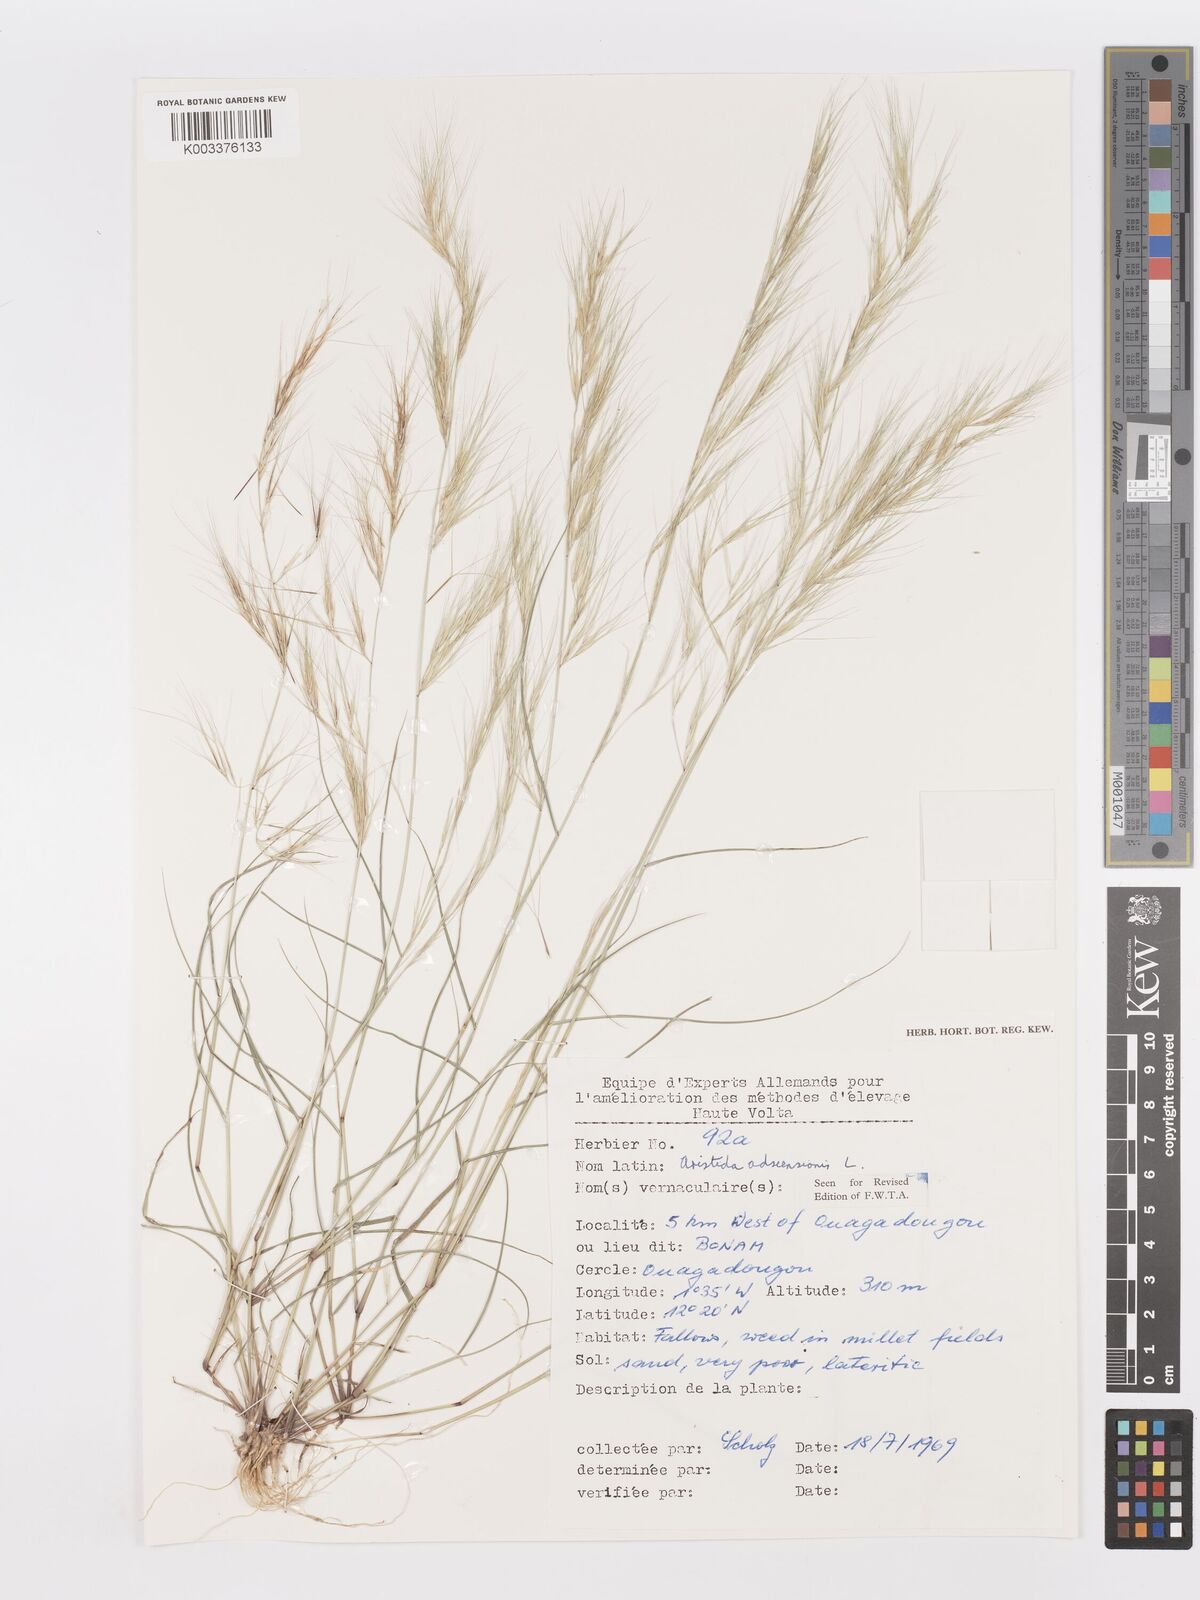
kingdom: Plantae
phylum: Tracheophyta
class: Liliopsida
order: Poales
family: Poaceae
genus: Aristida
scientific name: Aristida adscensionis
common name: Sixweeks threeawn
